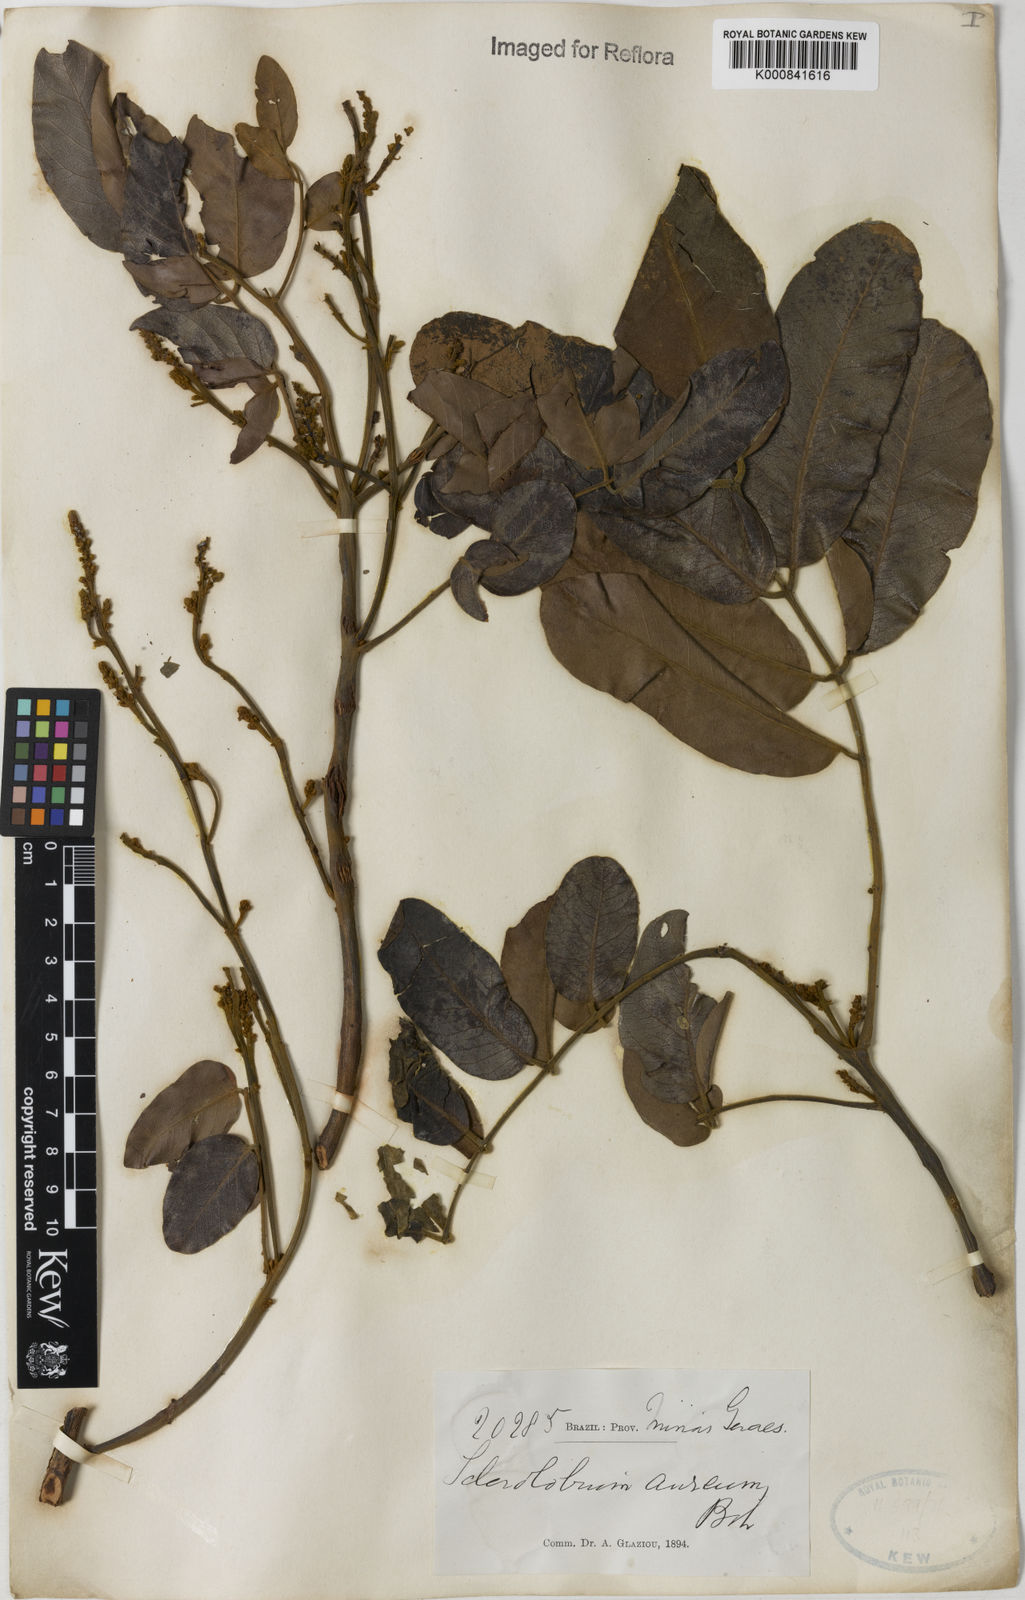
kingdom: Plantae
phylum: Tracheophyta
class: Magnoliopsida
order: Fabales
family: Fabaceae
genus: Tachigali
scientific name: Tachigali aurea
